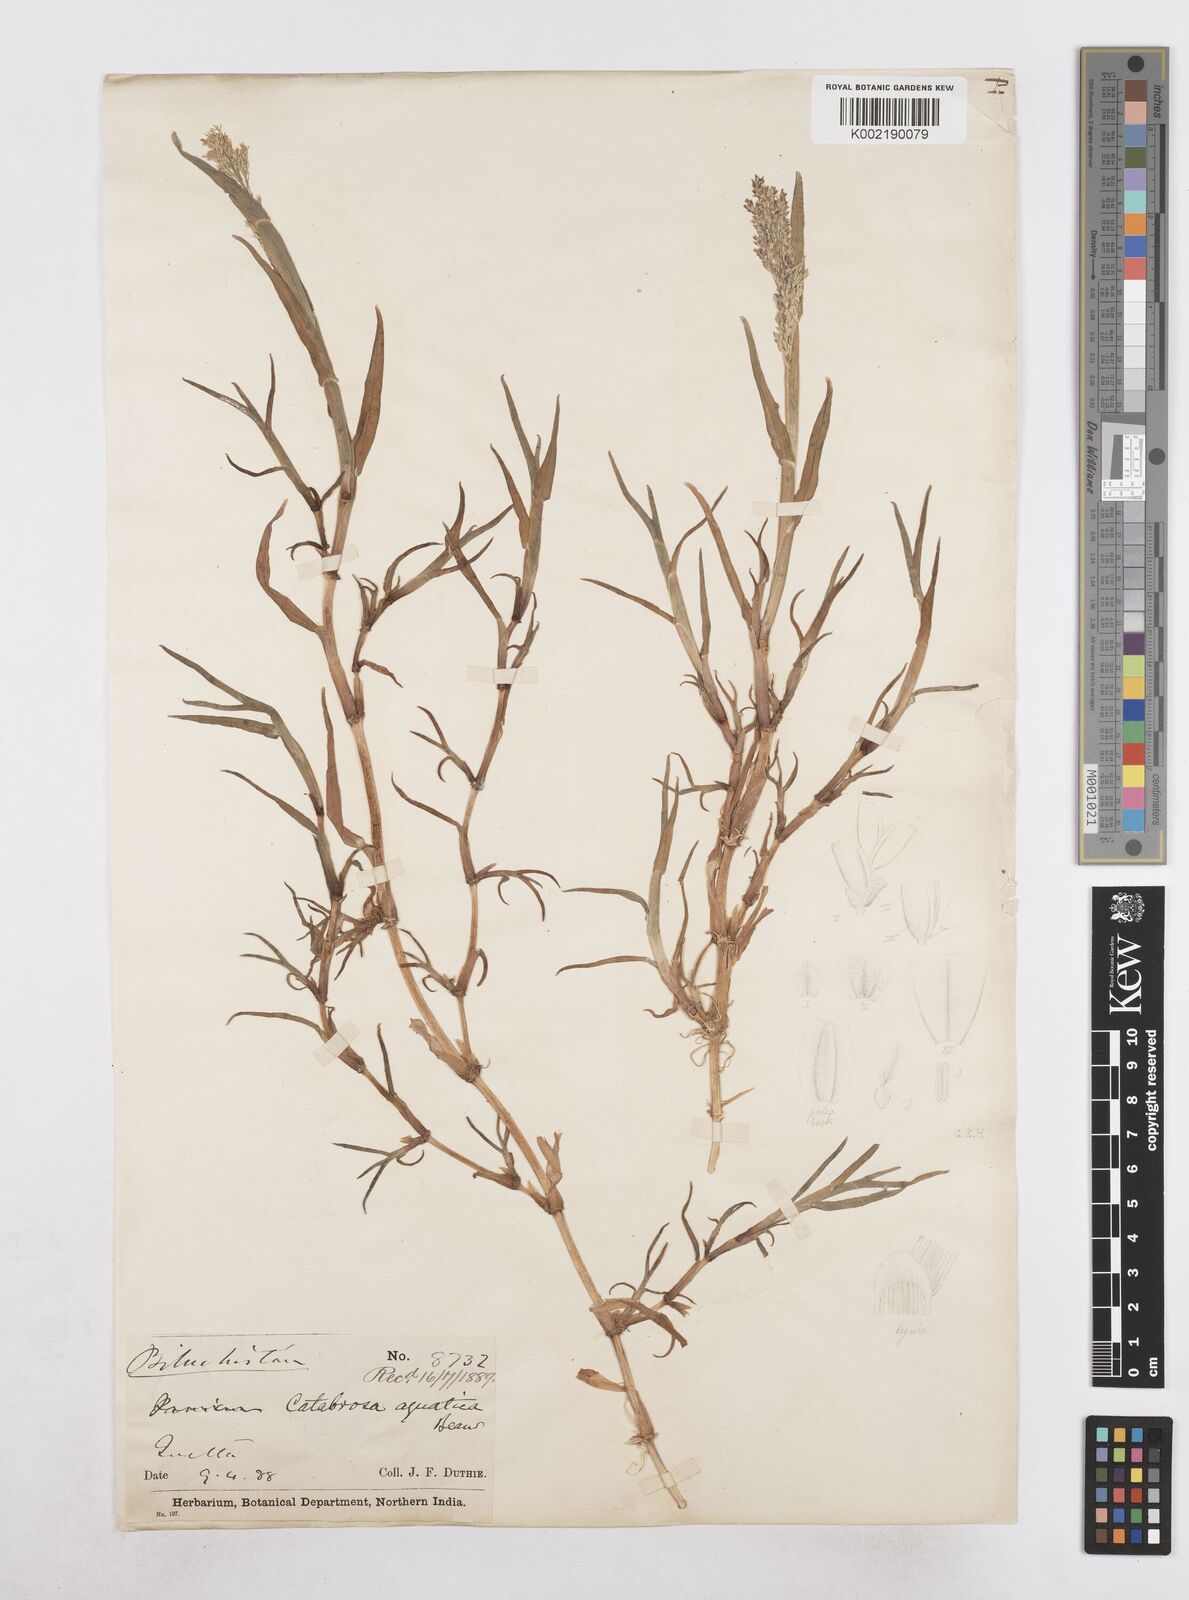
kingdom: Plantae
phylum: Tracheophyta
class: Liliopsida
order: Poales
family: Poaceae
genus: Catabrosa
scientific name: Catabrosa aquatica
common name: Whorl-grass
